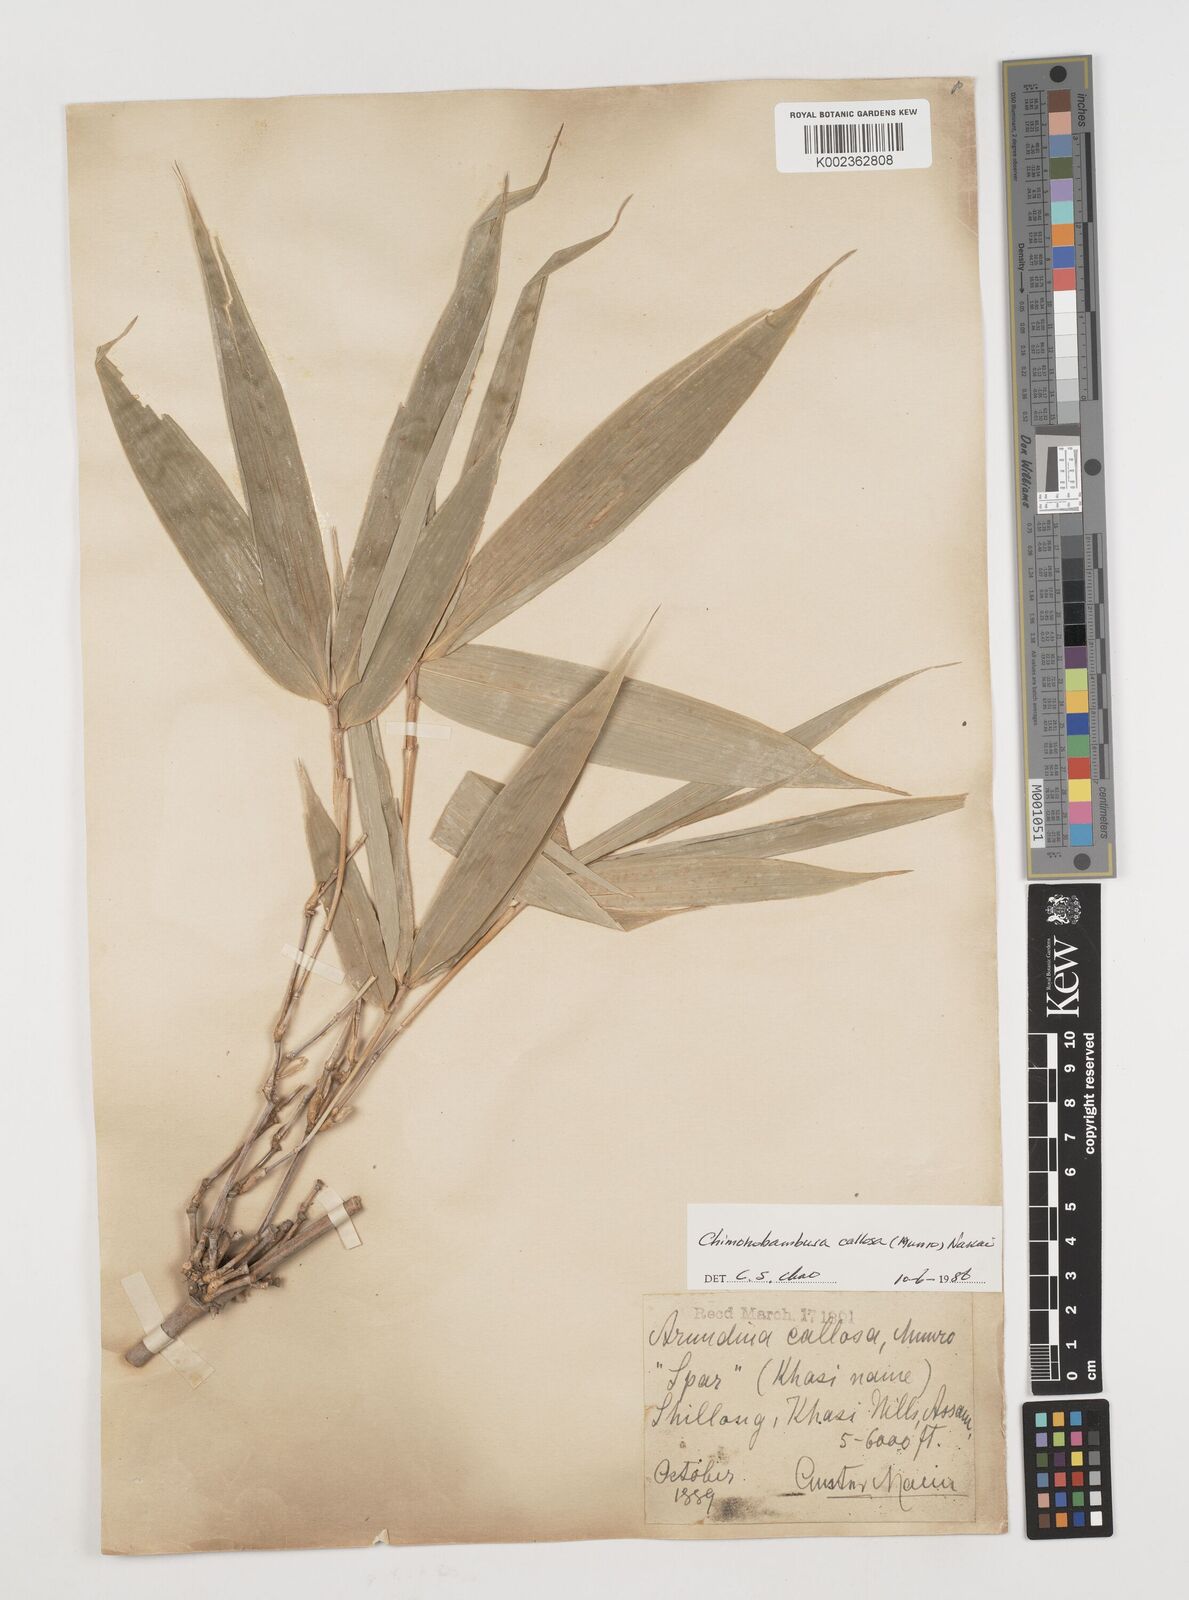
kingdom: Plantae
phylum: Tracheophyta
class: Liliopsida
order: Poales
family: Poaceae
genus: Chimonobambusa
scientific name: Chimonobambusa callosa
